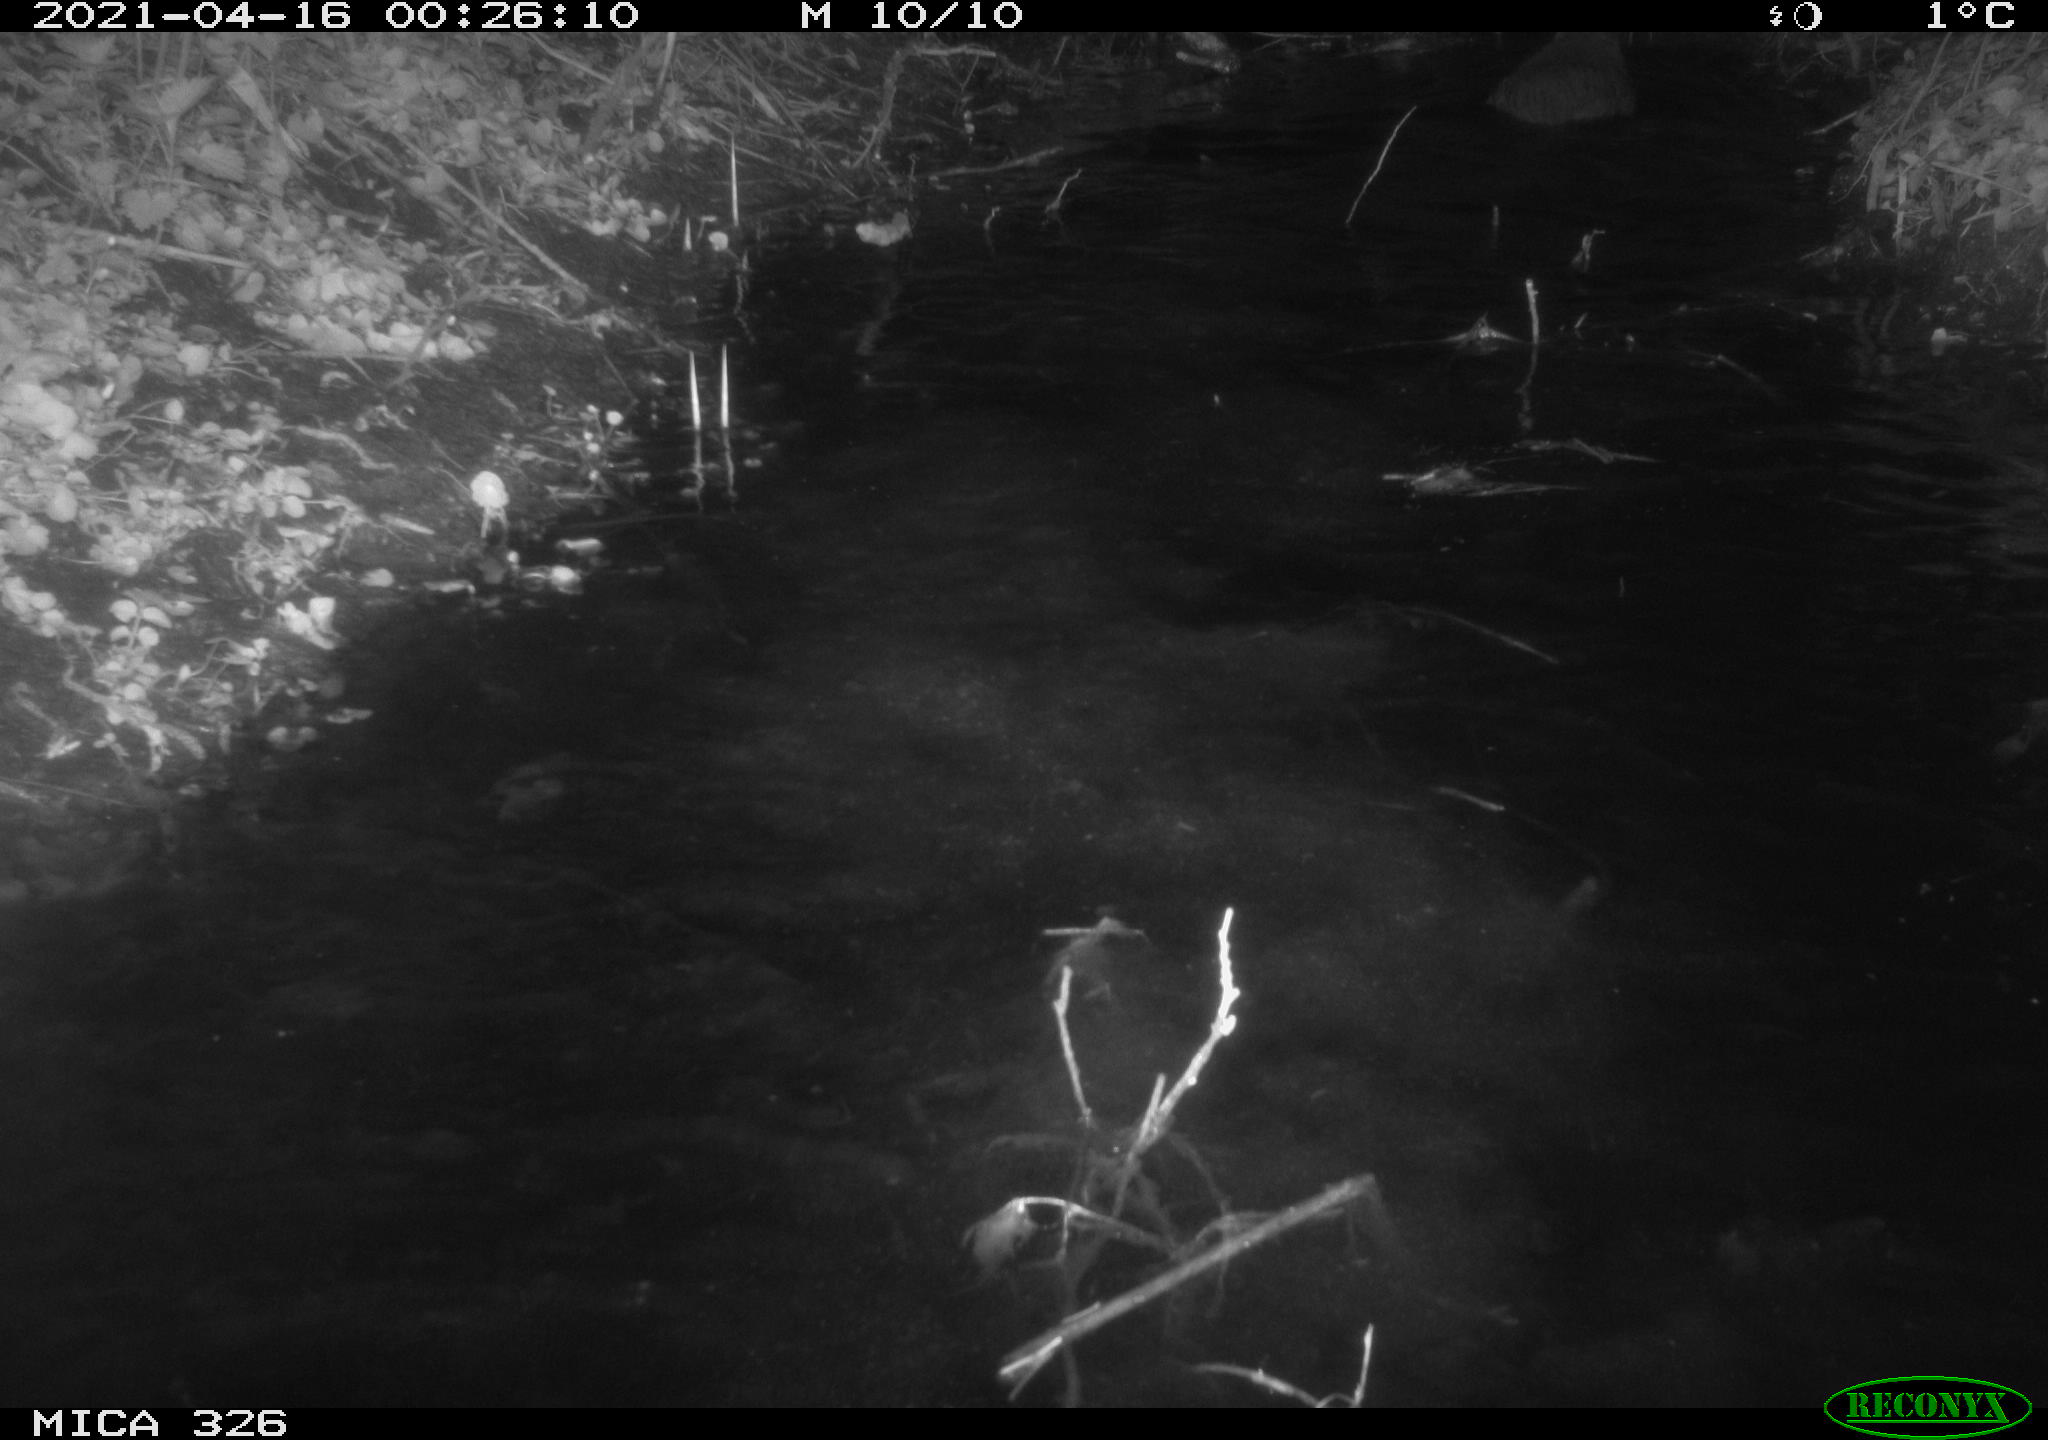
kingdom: Animalia
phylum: Chordata
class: Mammalia
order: Rodentia
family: Myocastoridae
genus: Myocastor
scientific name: Myocastor coypus
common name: Coypu
